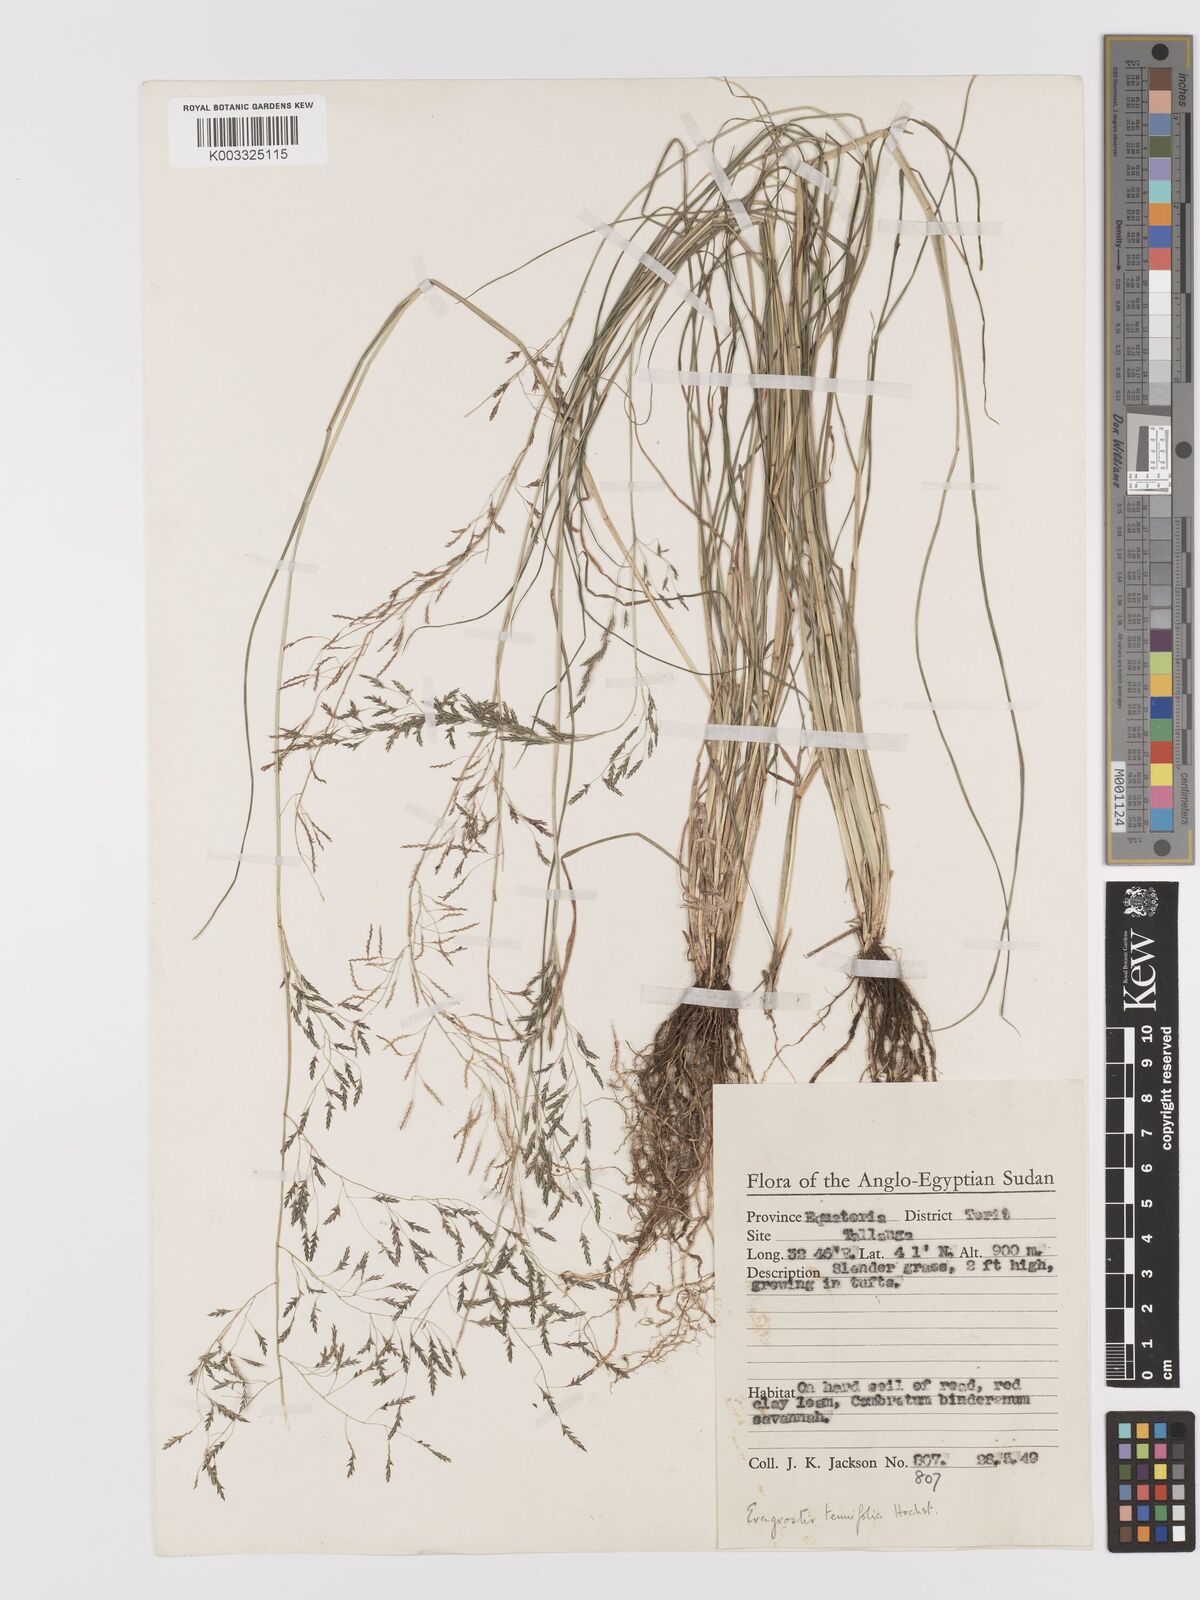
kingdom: Plantae
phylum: Tracheophyta
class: Liliopsida
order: Poales
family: Poaceae
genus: Eragrostis
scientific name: Eragrostis tenuifolia
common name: Elastic grass
